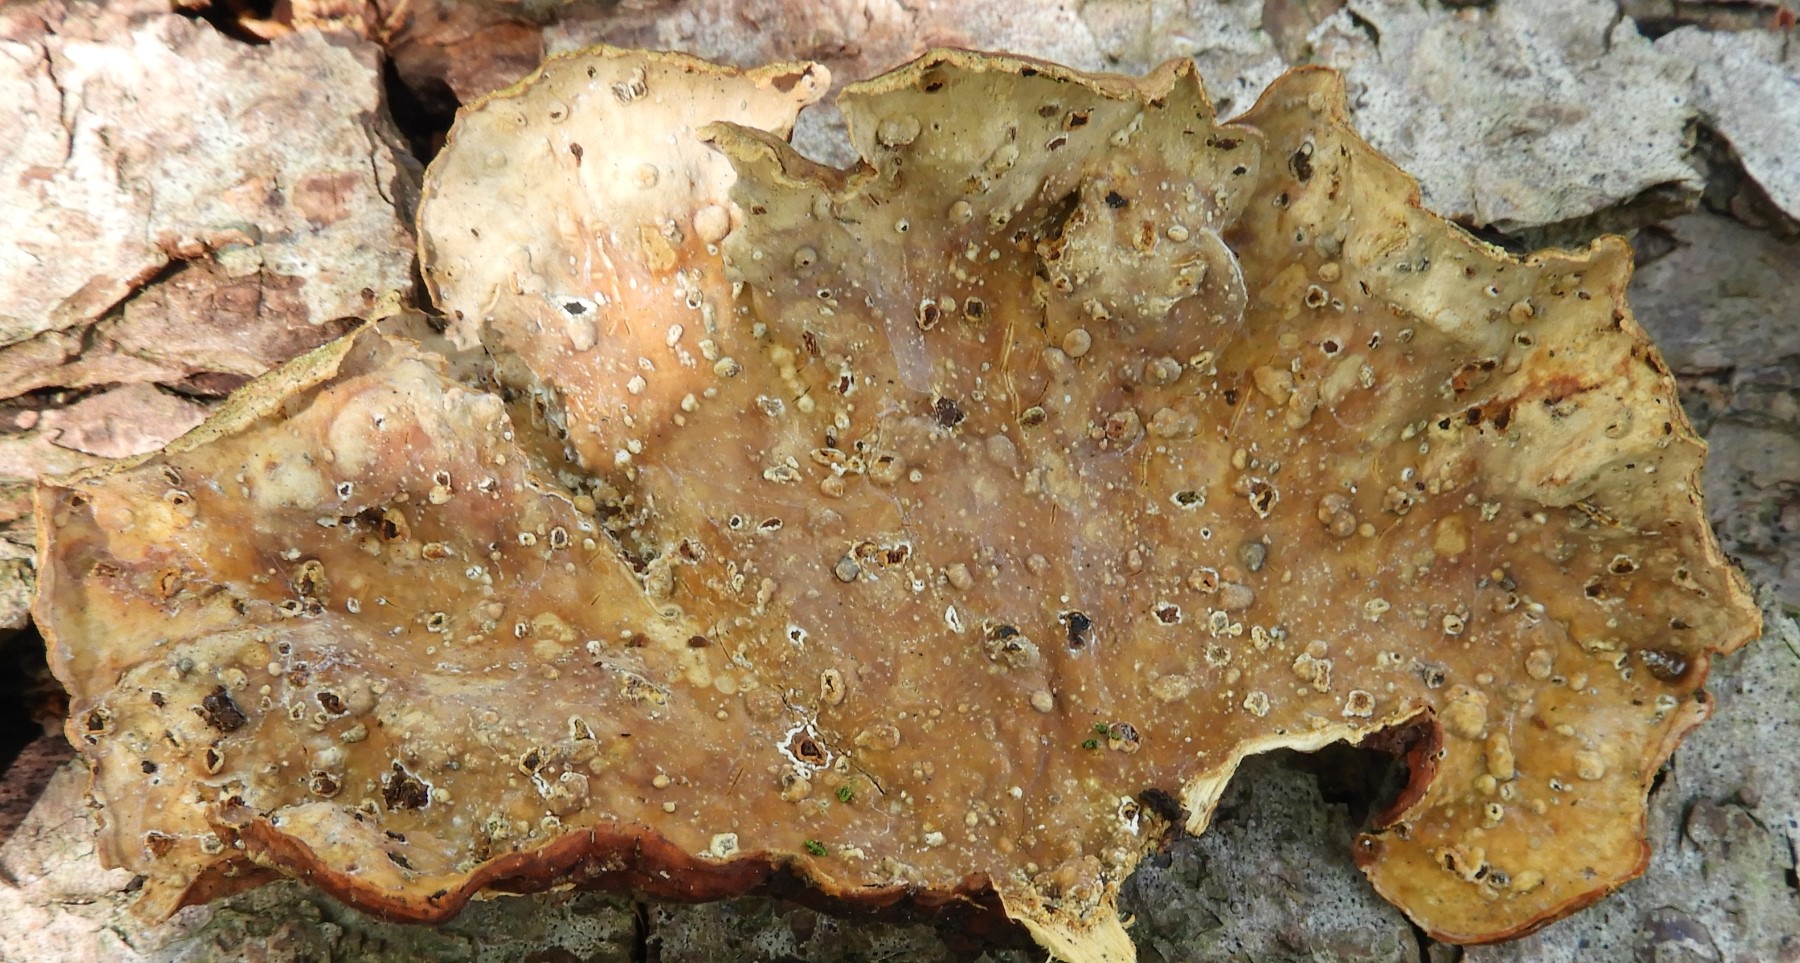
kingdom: Fungi
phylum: Basidiomycota
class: Agaricomycetes
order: Russulales
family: Stereaceae
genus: Stereum
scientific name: Stereum subtomentosum
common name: smuk lædersvamp
